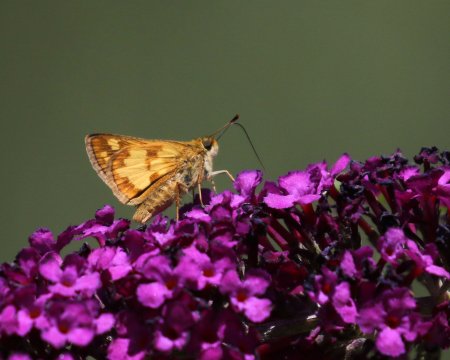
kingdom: Animalia
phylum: Arthropoda
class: Insecta
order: Lepidoptera
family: Hesperiidae
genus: Polites
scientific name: Polites coras
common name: Peck's Skipper
